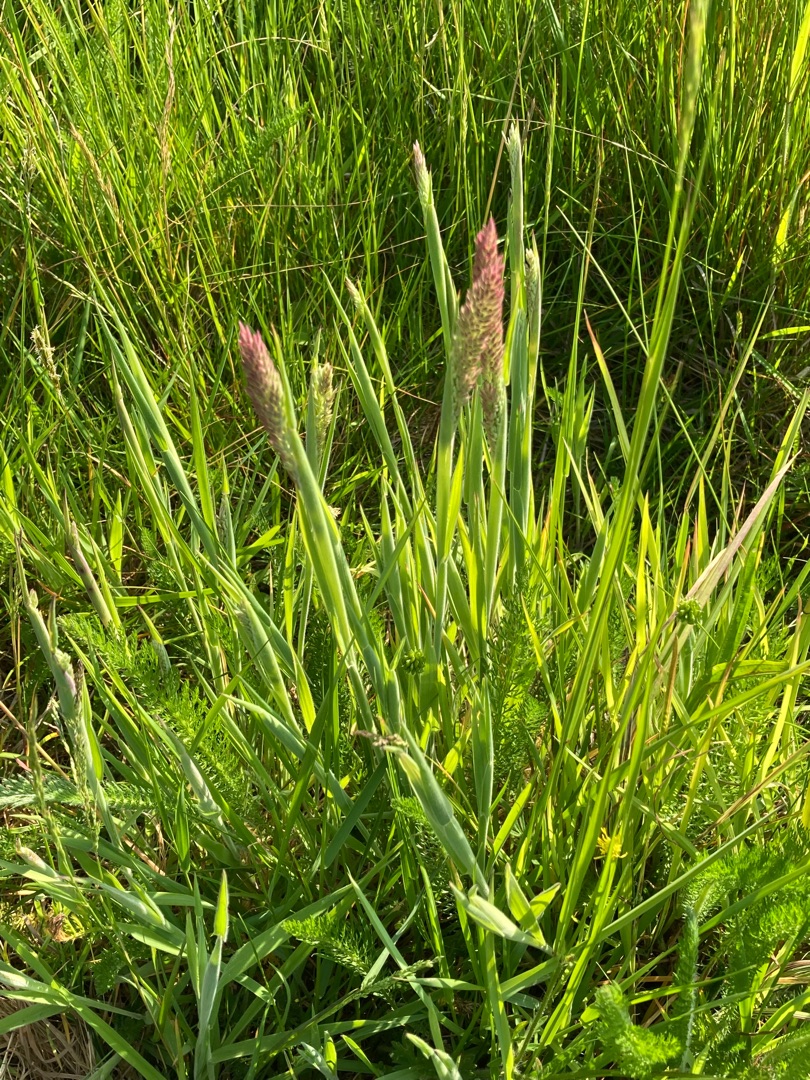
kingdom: Plantae
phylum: Tracheophyta
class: Liliopsida
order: Poales
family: Poaceae
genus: Holcus
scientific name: Holcus lanatus
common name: Fløjlsgræs
